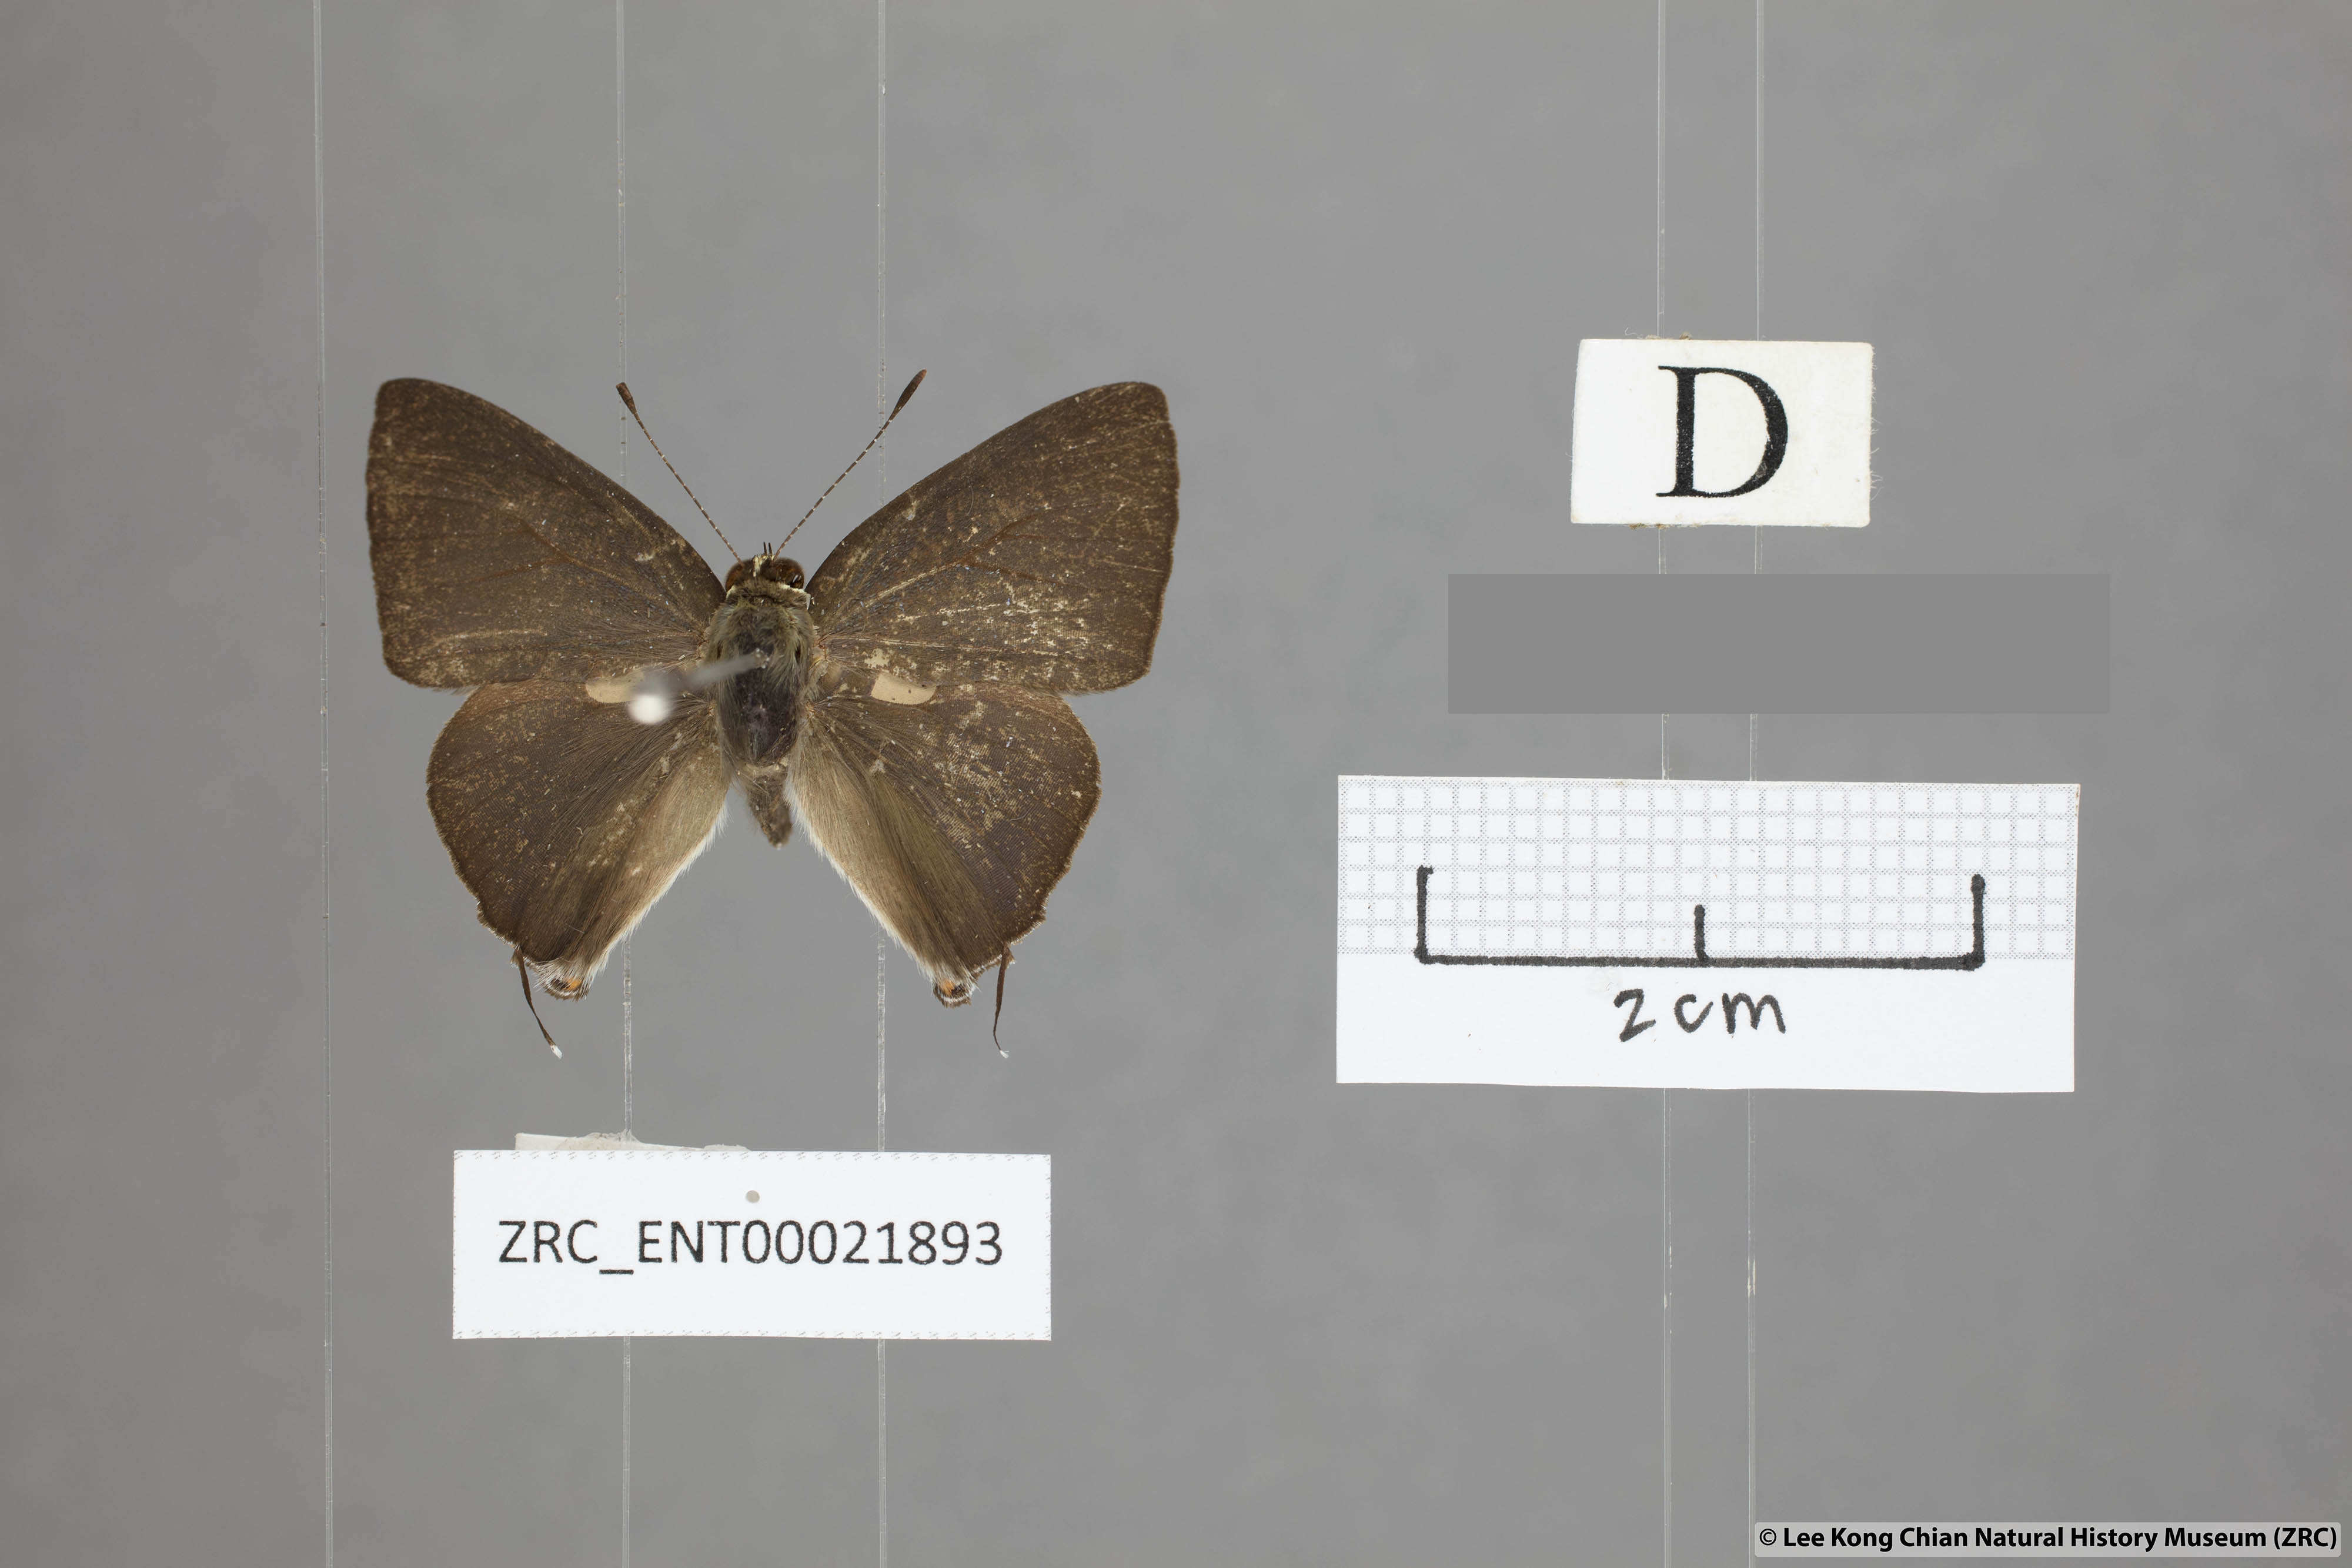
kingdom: Animalia
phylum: Arthropoda
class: Insecta
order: Lepidoptera
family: Lycaenidae
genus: Rapala
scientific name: Rapala scintilla
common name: Scarce slate flash
